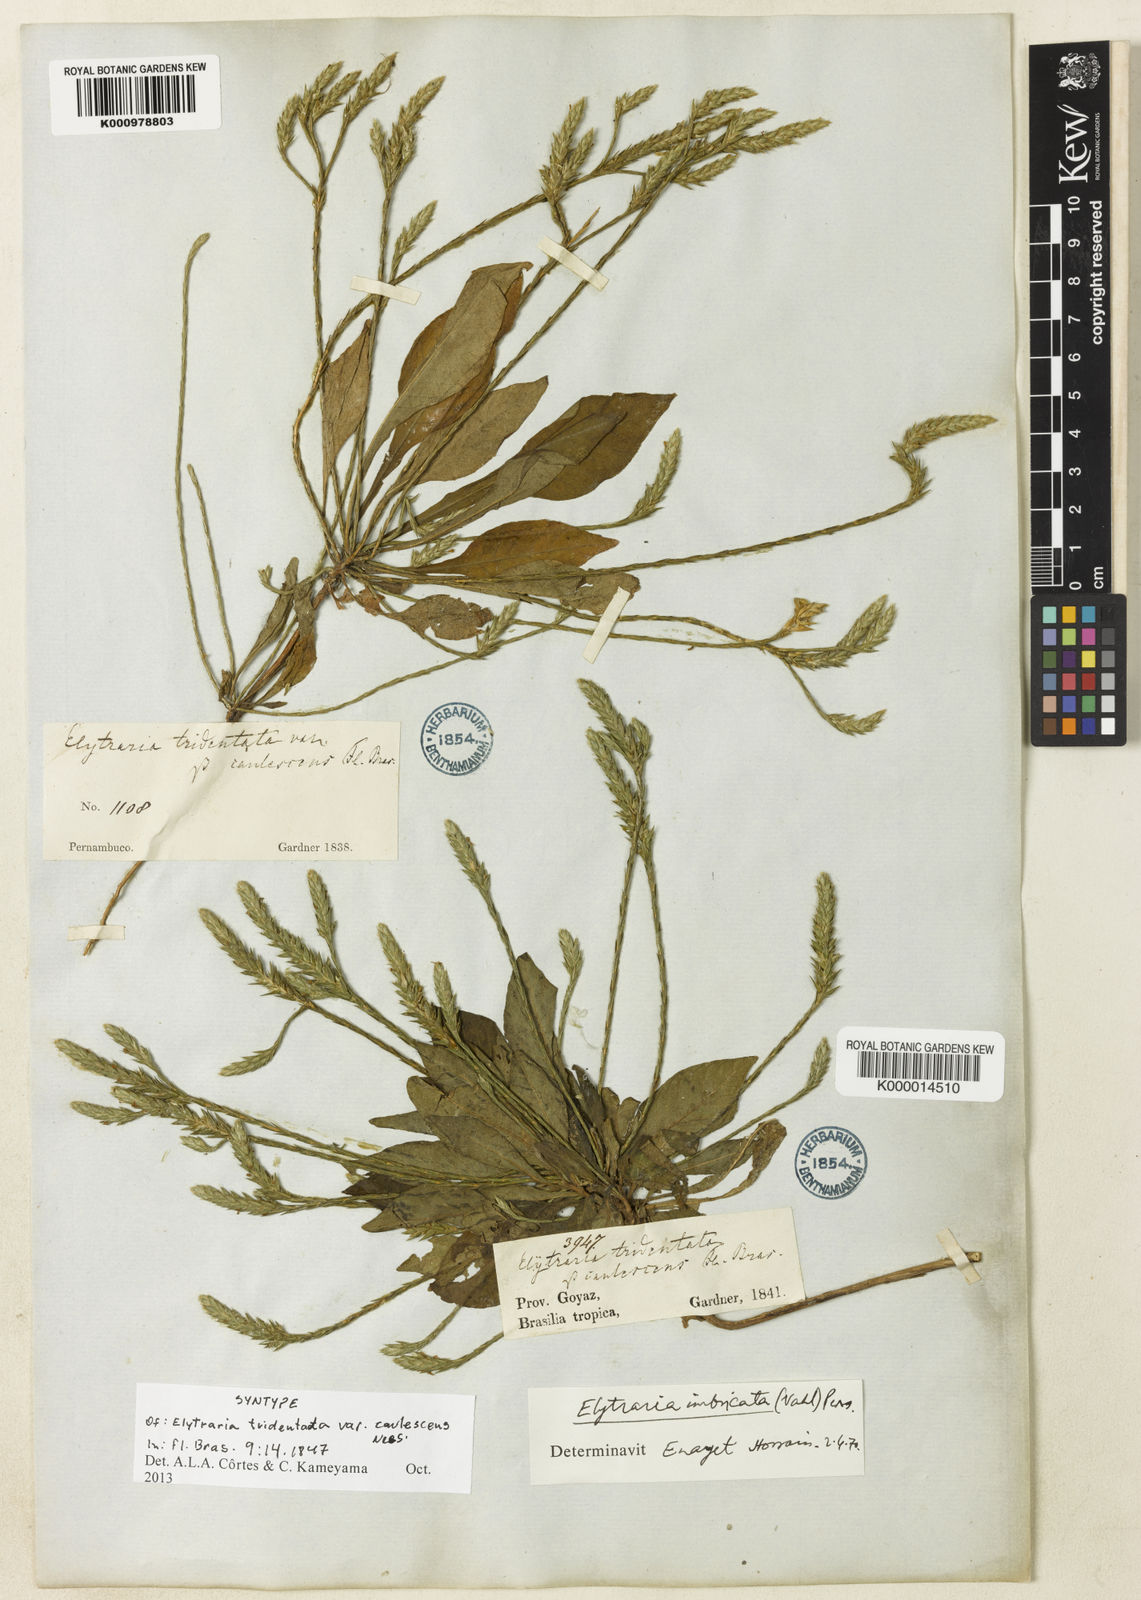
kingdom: Plantae
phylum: Tracheophyta
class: Magnoliopsida
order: Lamiales
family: Acanthaceae
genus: Elytraria
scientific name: Elytraria imbricata
